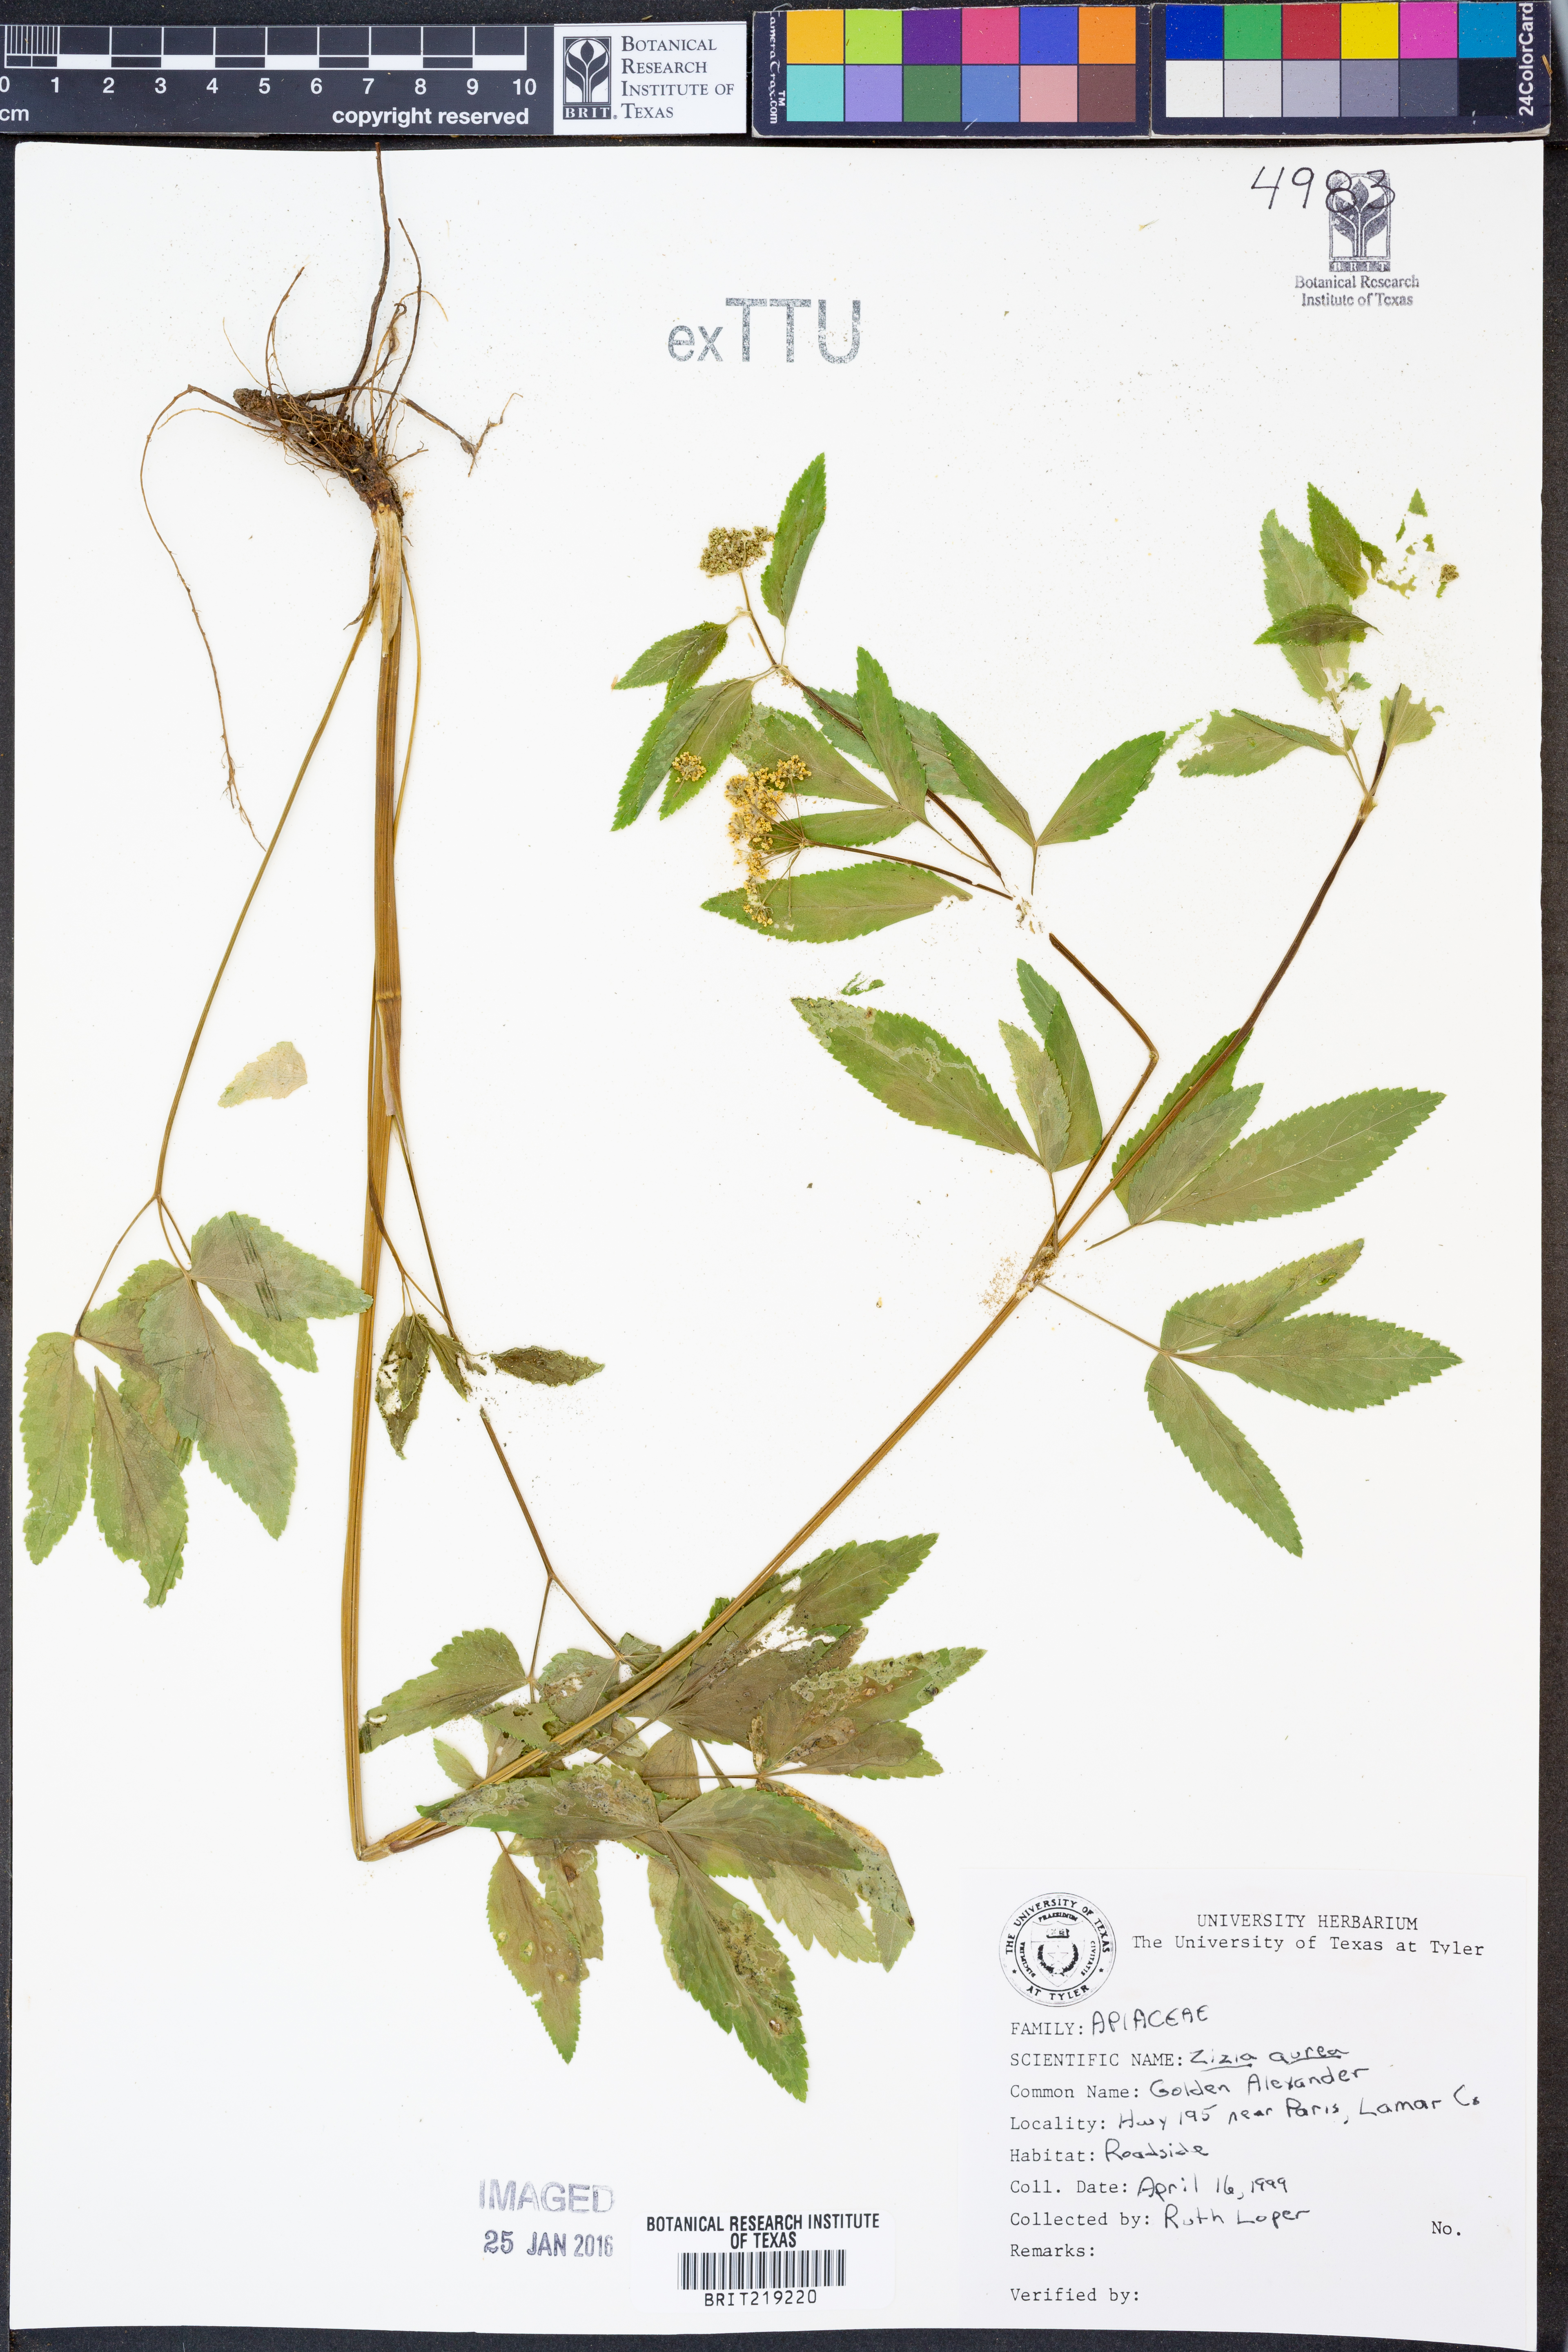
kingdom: Plantae
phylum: Tracheophyta
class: Magnoliopsida
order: Apiales
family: Apiaceae
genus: Zizia
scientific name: Zizia aurea
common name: Golden alexanders
